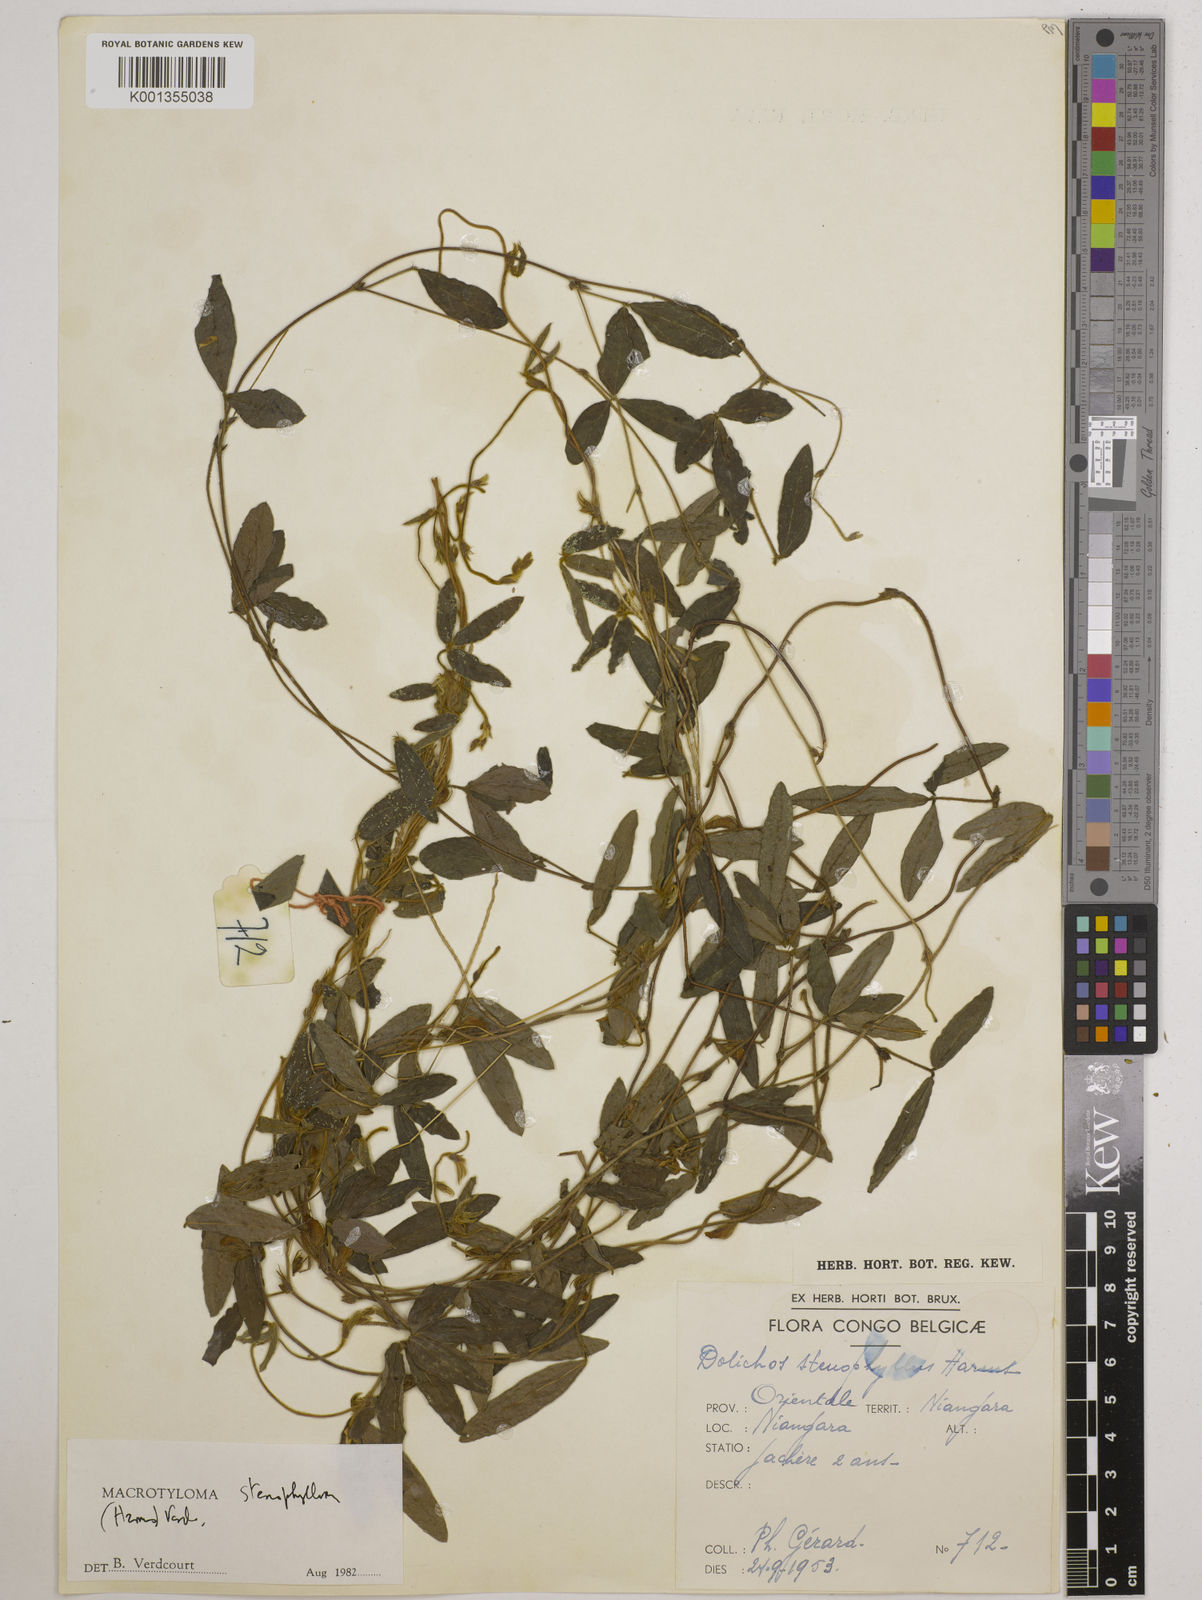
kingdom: Plantae
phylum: Tracheophyta
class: Magnoliopsida
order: Fabales
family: Fabaceae
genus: Macrotyloma
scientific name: Macrotyloma stenophyllum
